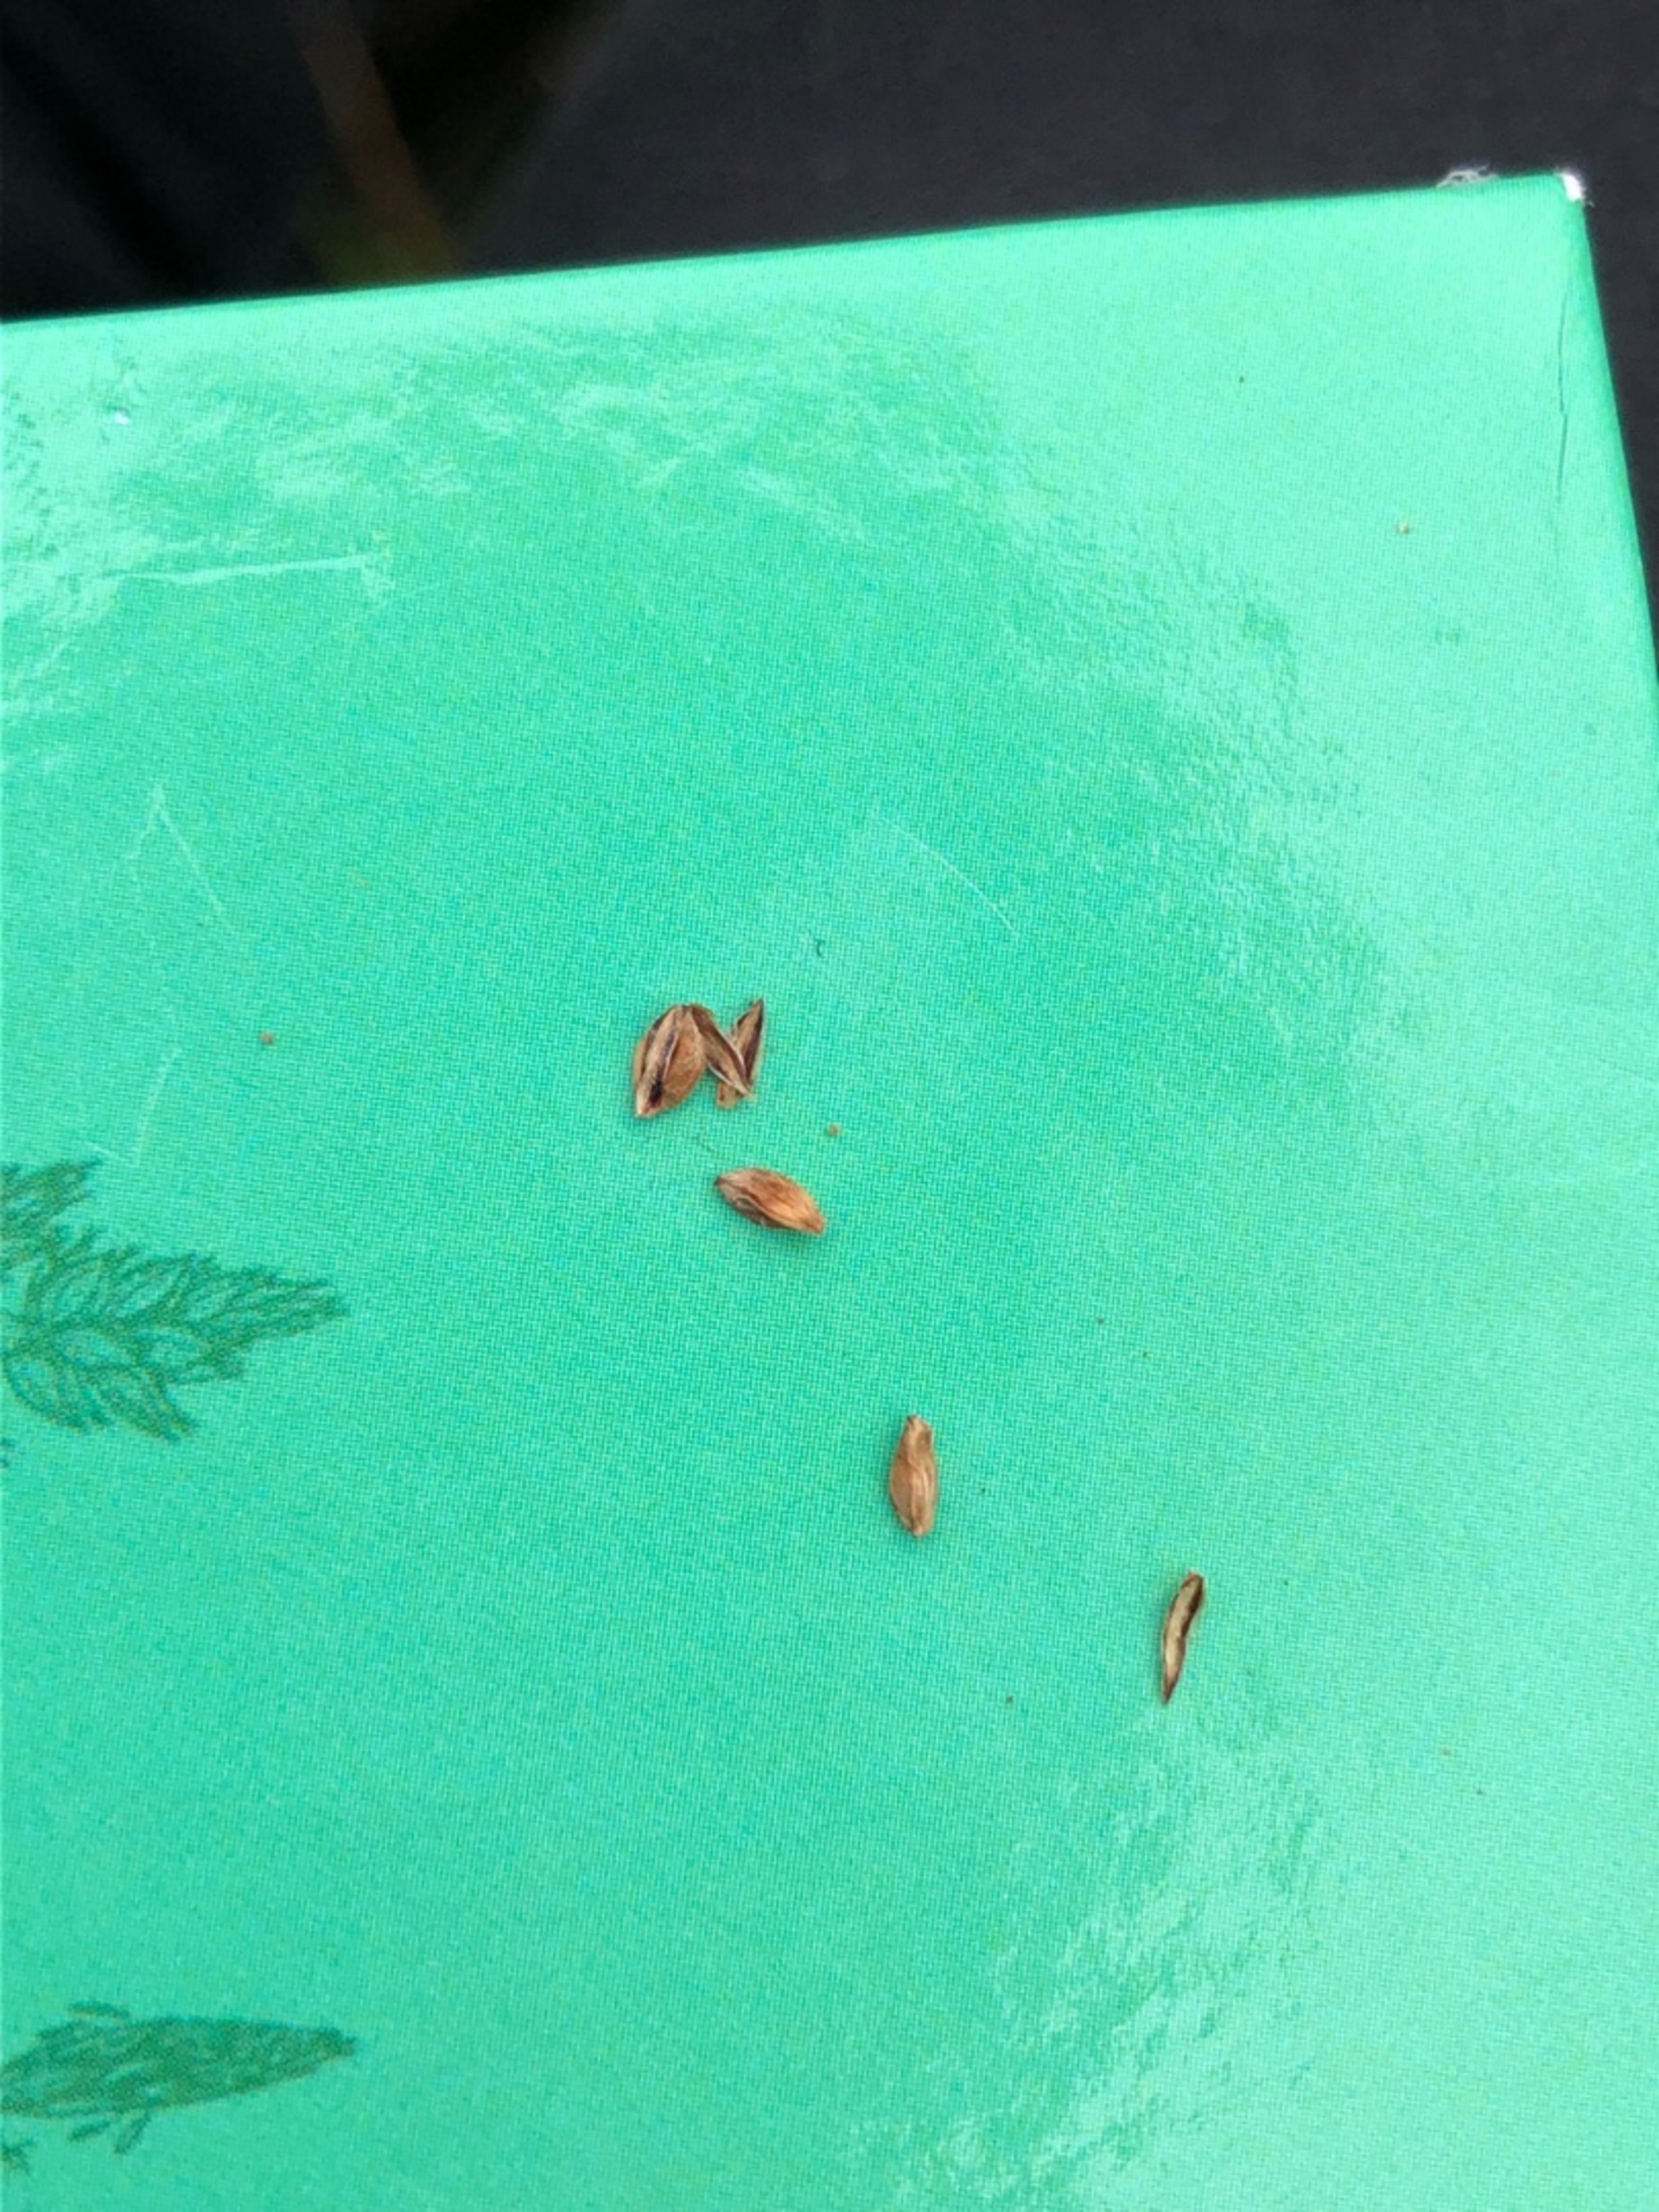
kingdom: Plantae
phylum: Tracheophyta
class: Liliopsida
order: Poales
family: Cyperaceae
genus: Carex
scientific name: Carex flacca
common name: Blågrøn star
